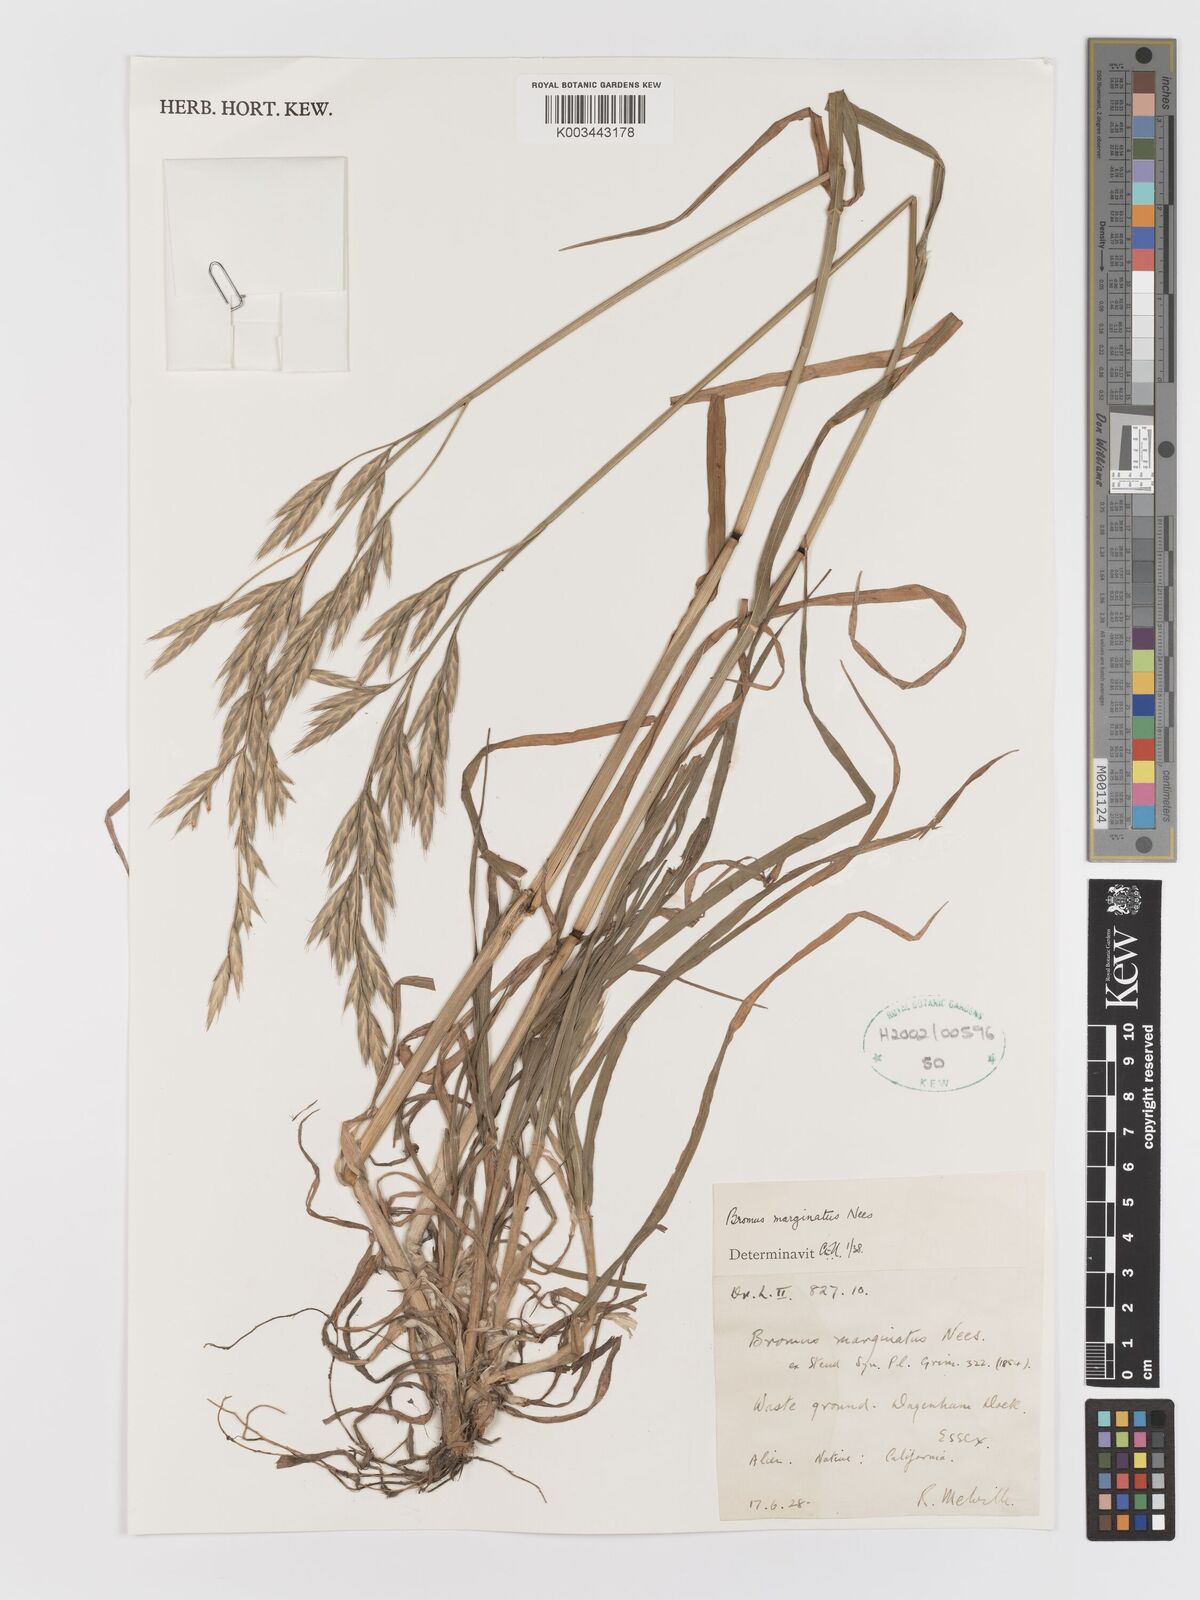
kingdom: Plantae
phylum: Tracheophyta
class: Liliopsida
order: Poales
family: Poaceae
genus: Bromus
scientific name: Bromus marginatus
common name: Western brome
